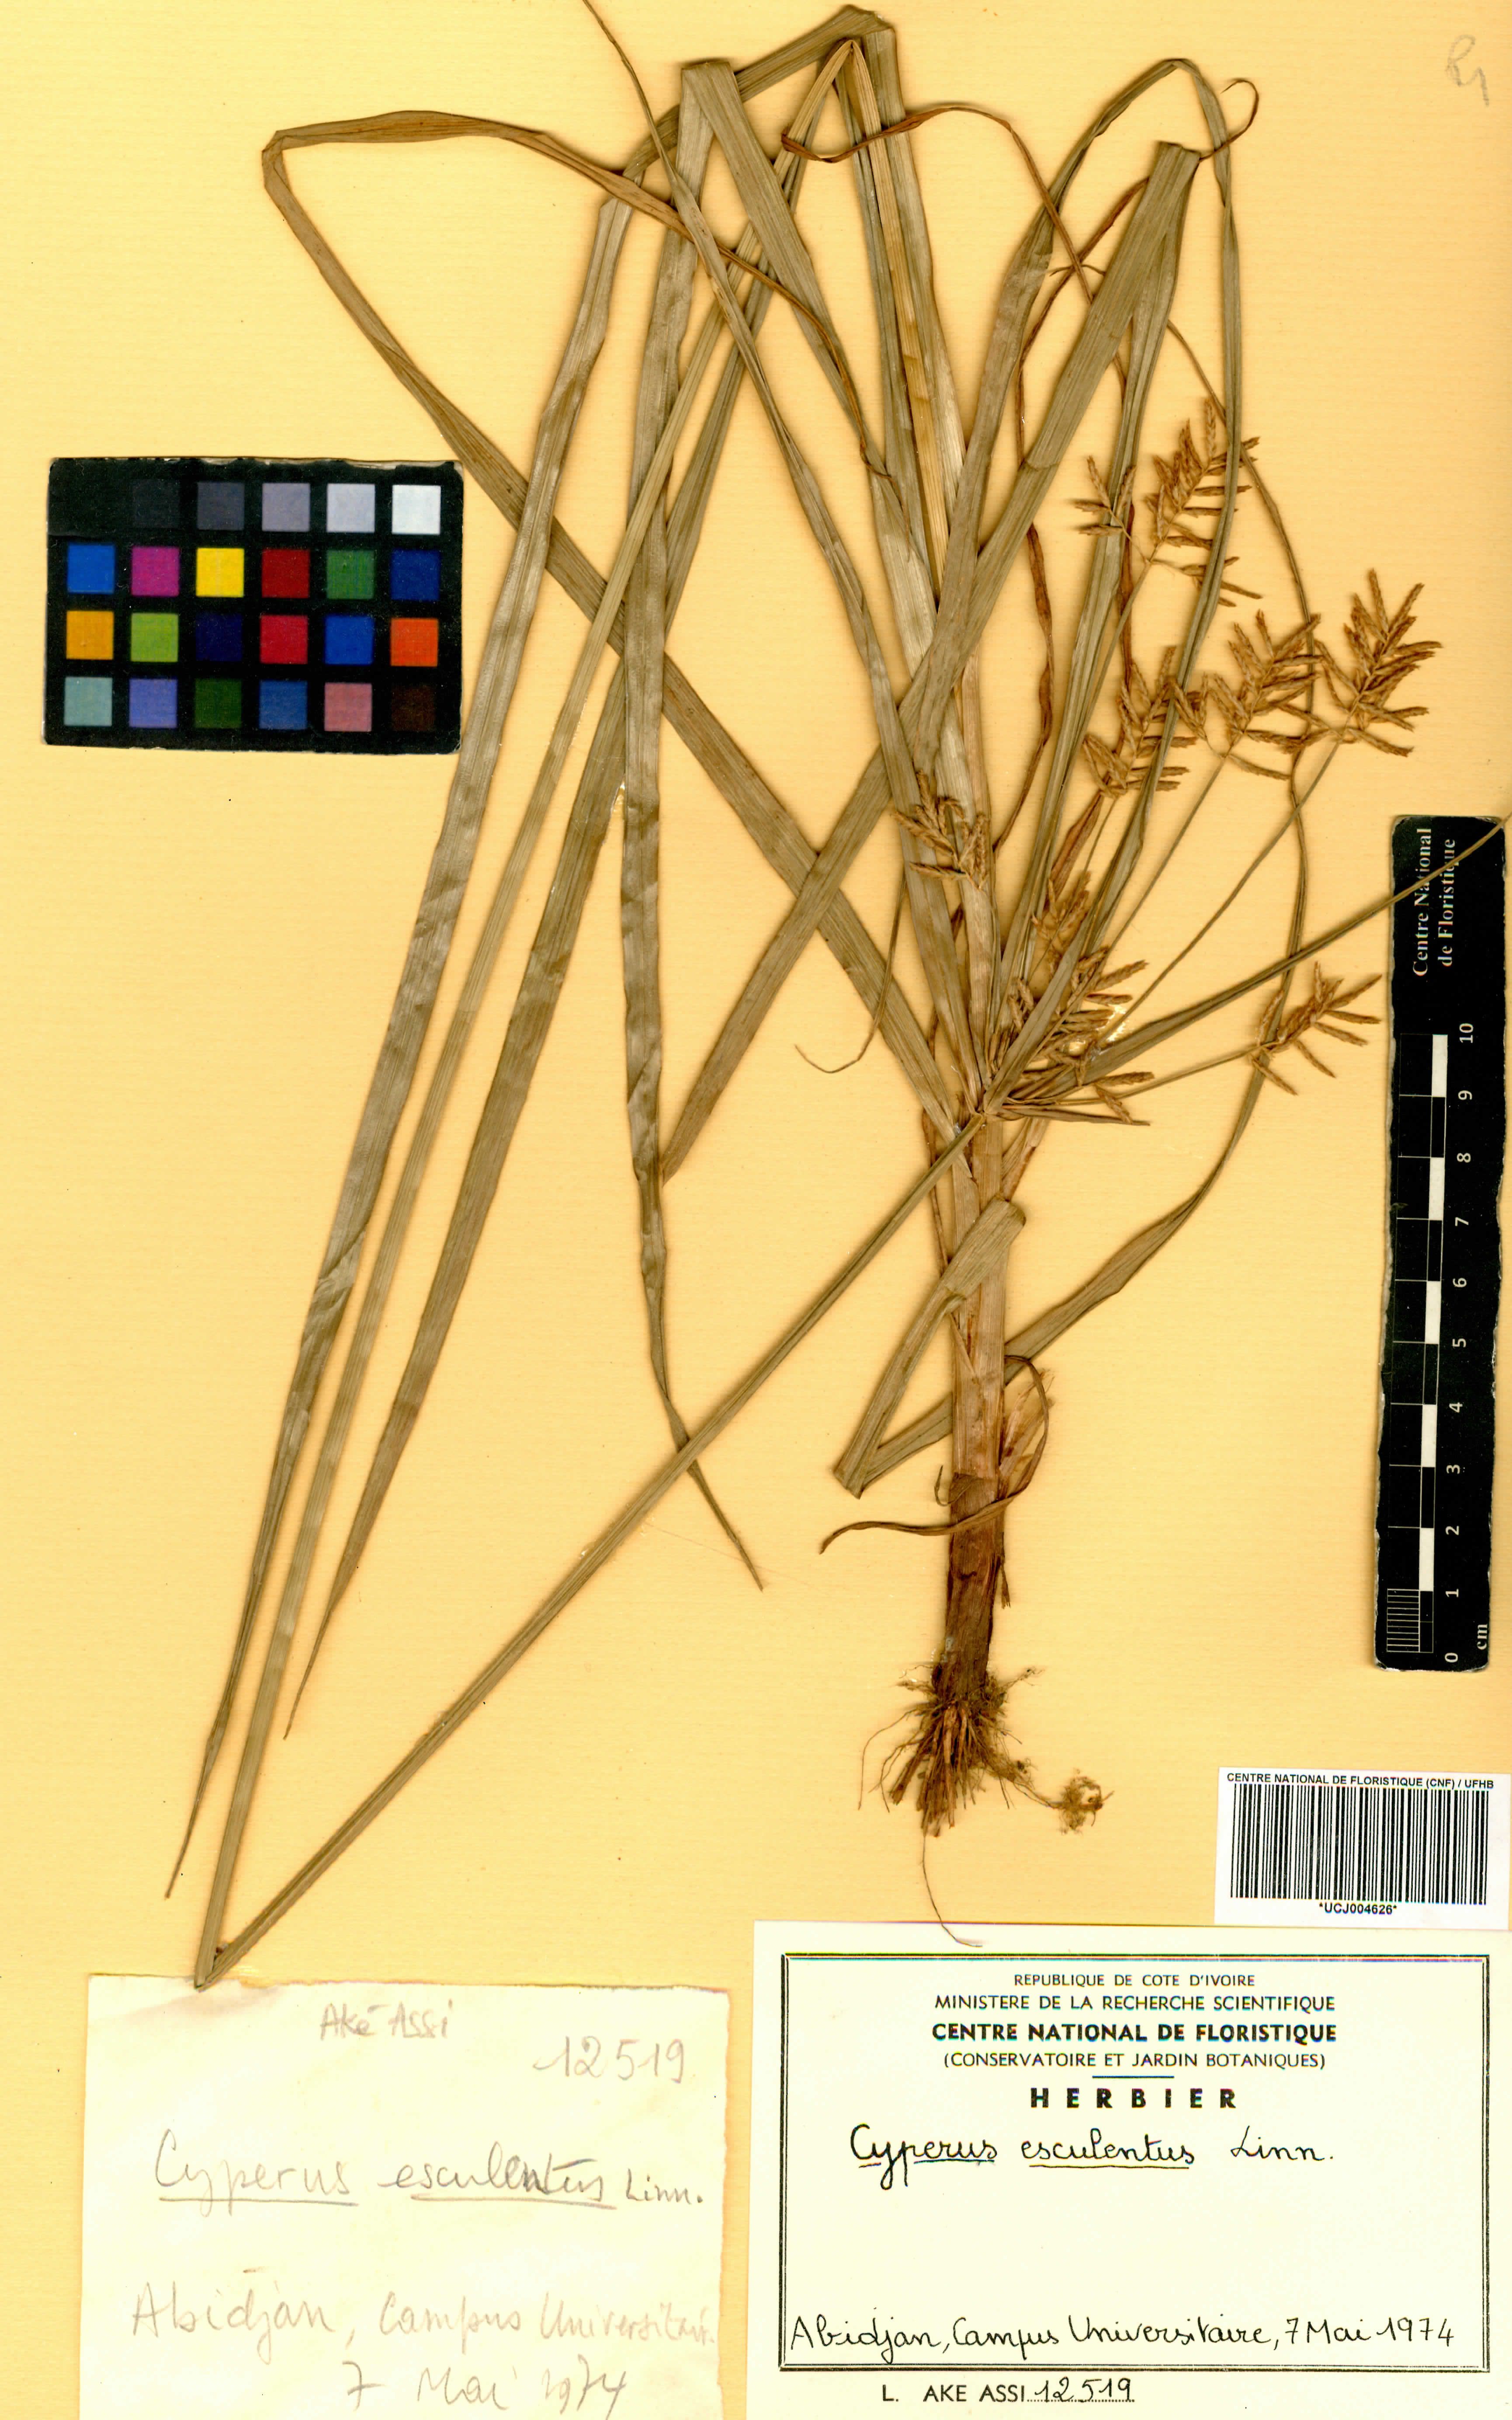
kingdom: Plantae
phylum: Tracheophyta
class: Liliopsida
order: Poales
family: Cyperaceae
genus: Cyperus
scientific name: Cyperus esculentus
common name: Yellow nutsedge
